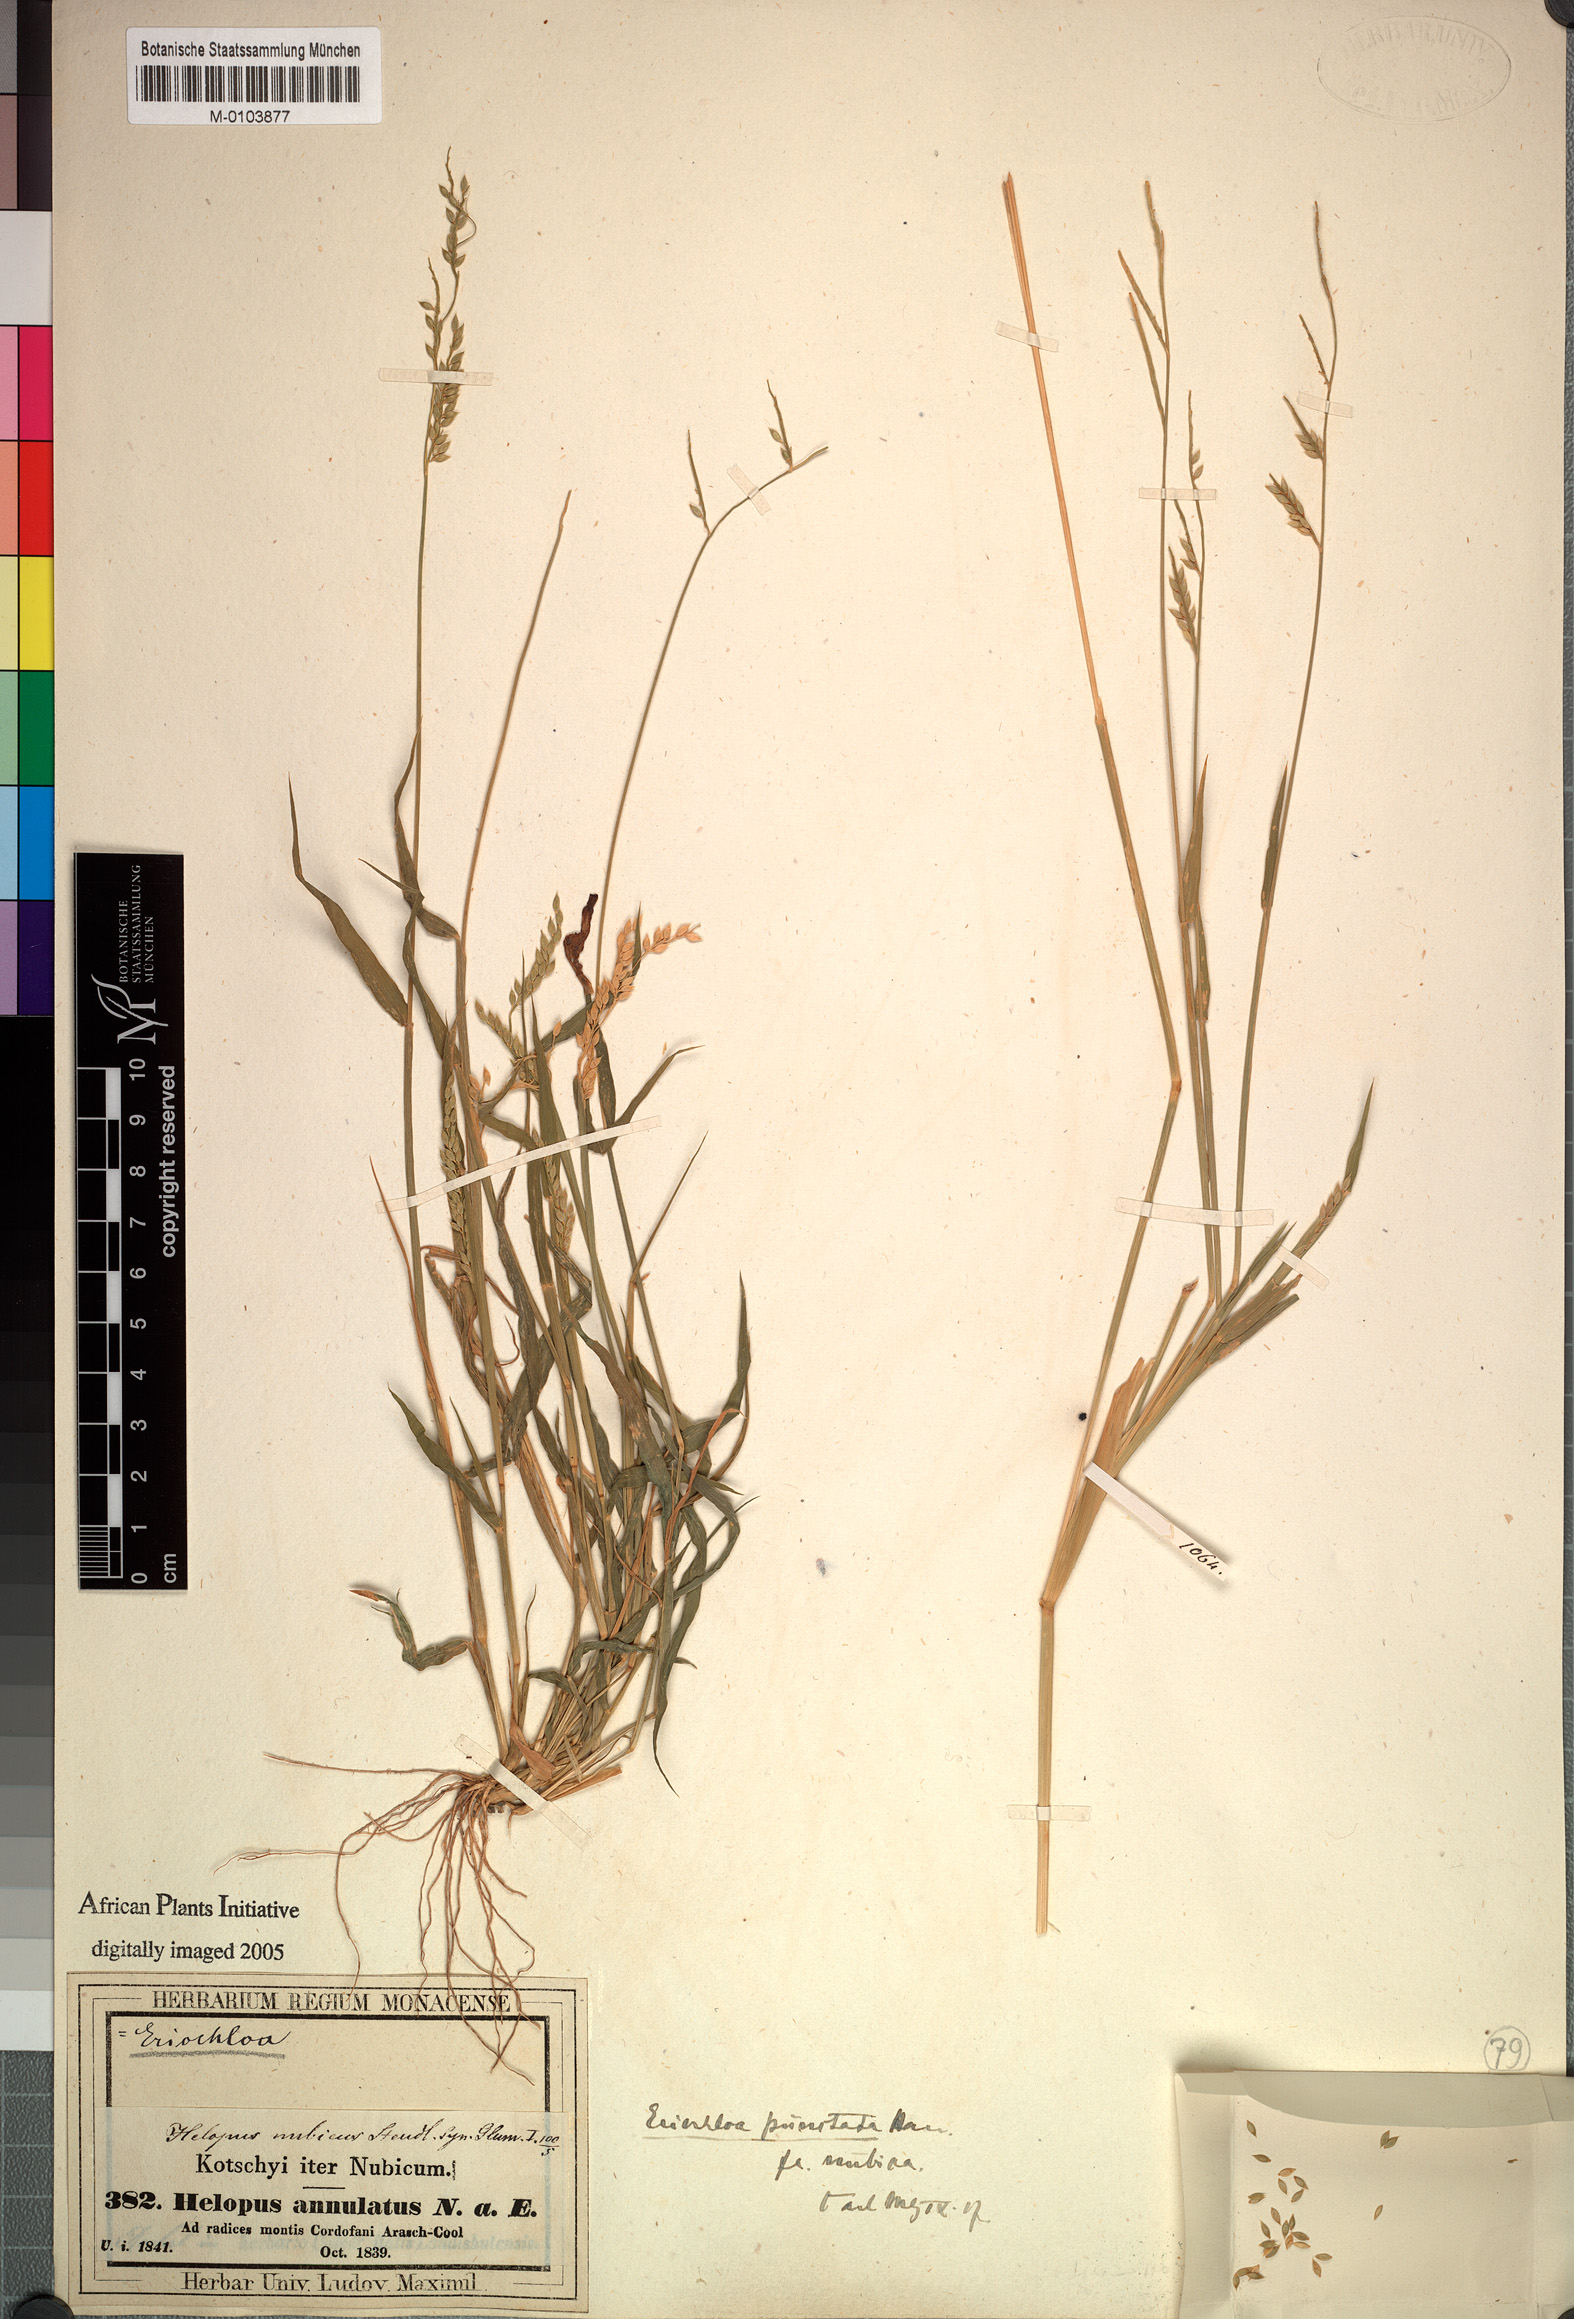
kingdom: Plantae
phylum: Tracheophyta
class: Liliopsida
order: Poales
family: Poaceae
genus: Eriochloa
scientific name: Eriochloa barbatus
